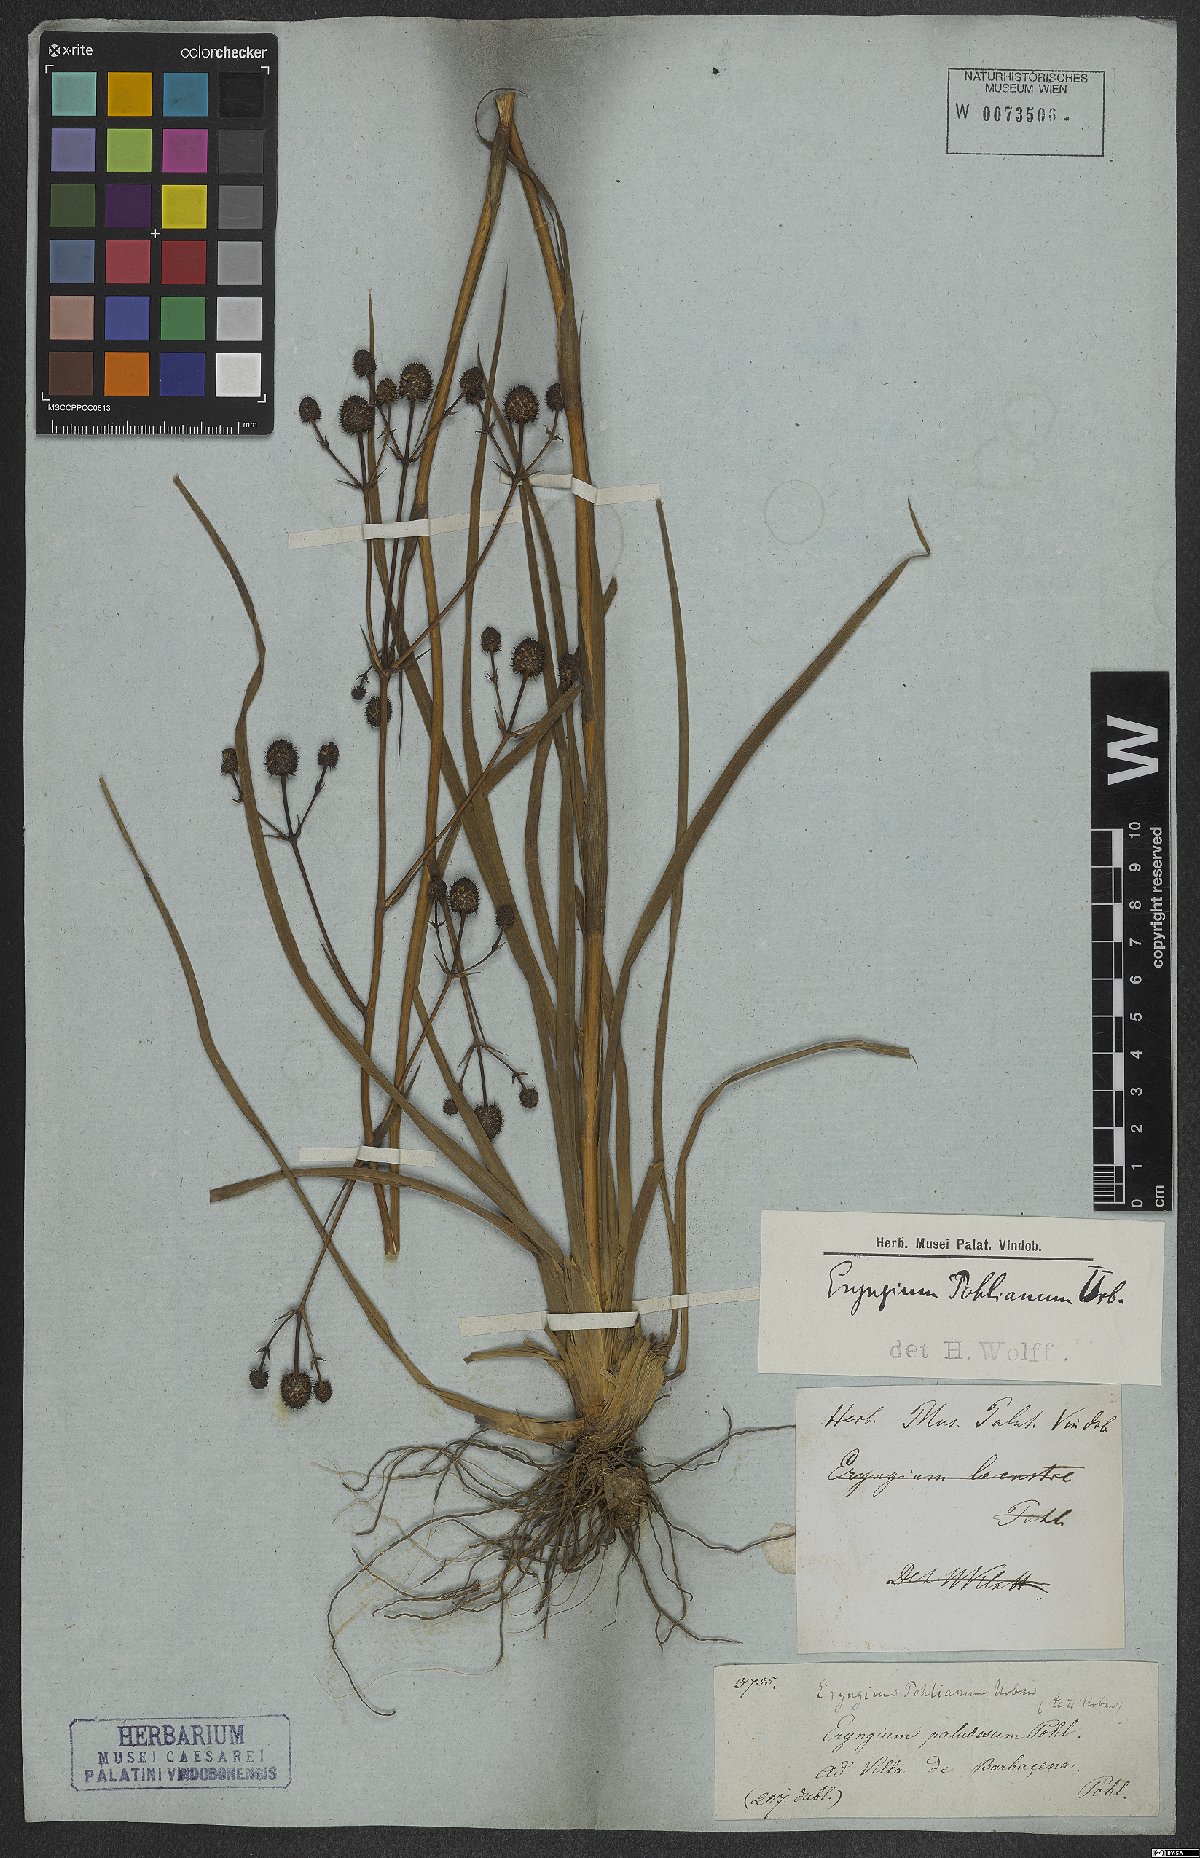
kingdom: Plantae
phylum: Tracheophyta
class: Magnoliopsida
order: Apiales
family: Apiaceae
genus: Eryngium
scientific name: Eryngium pohlianum
